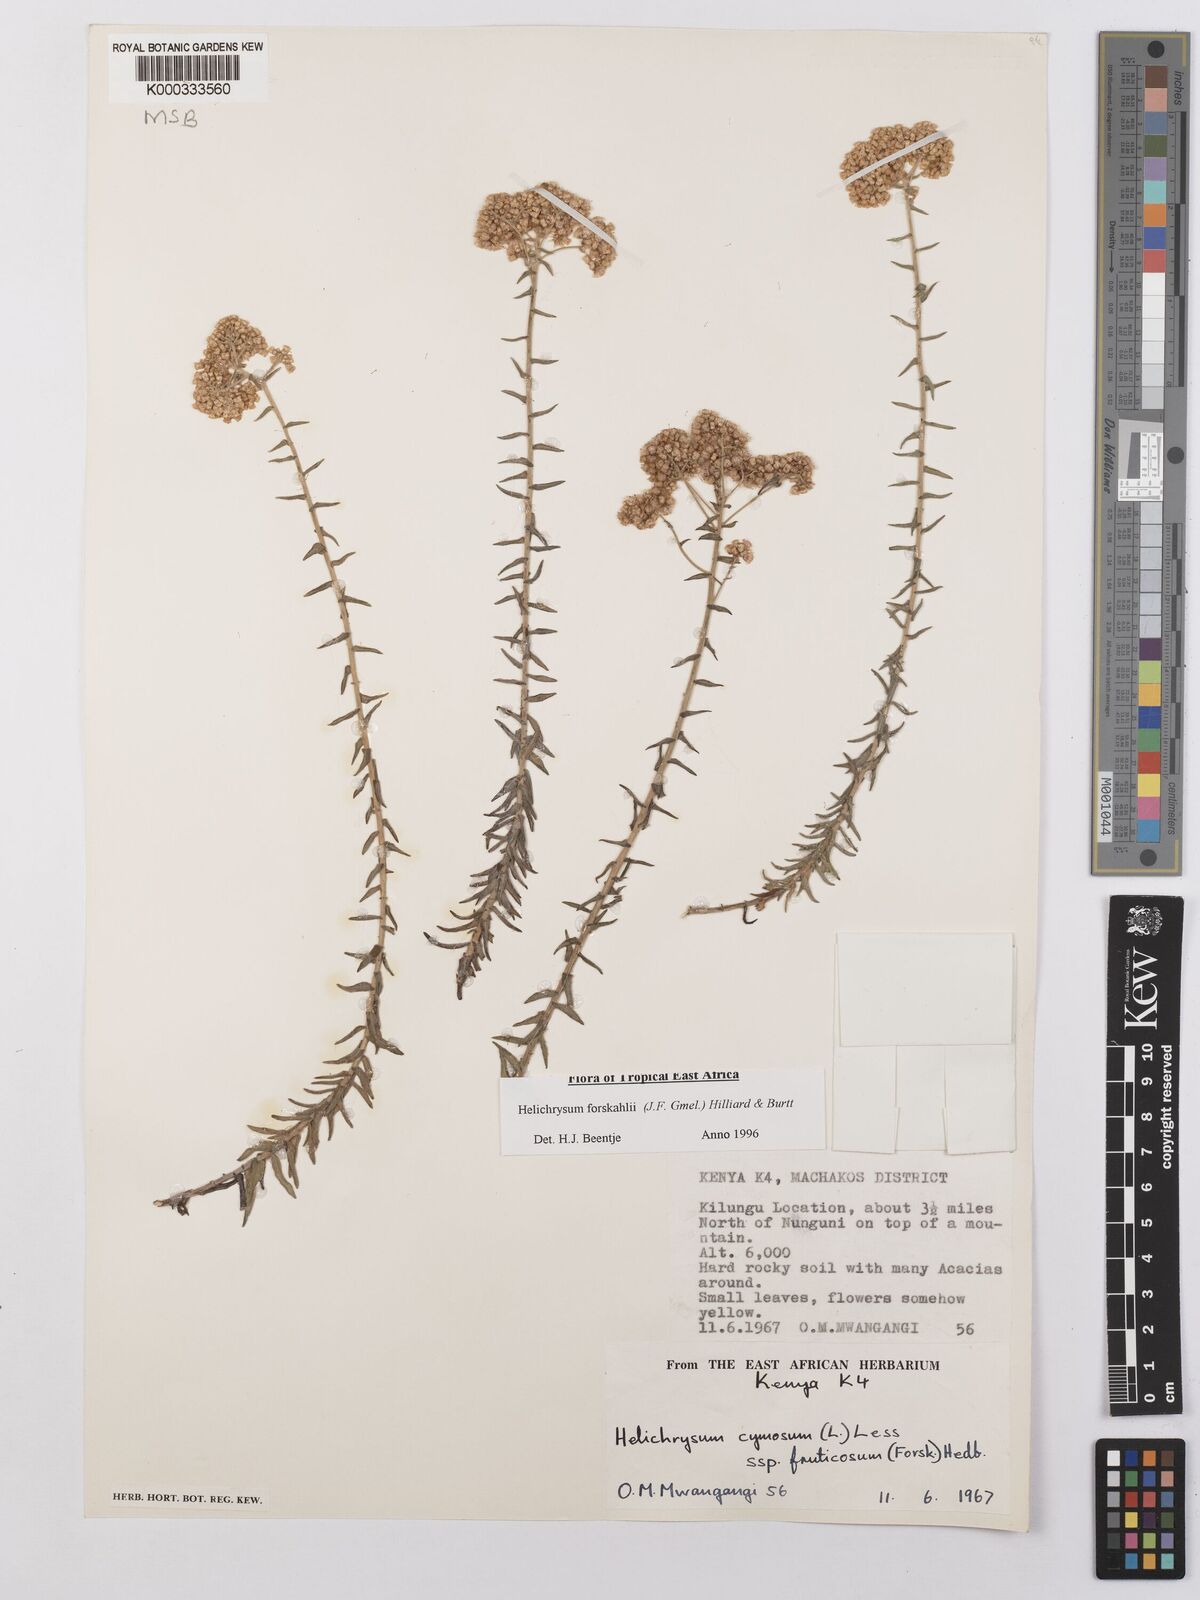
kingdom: Plantae
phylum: Tracheophyta
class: Magnoliopsida
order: Asterales
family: Asteraceae
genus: Helichrysum
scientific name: Helichrysum
